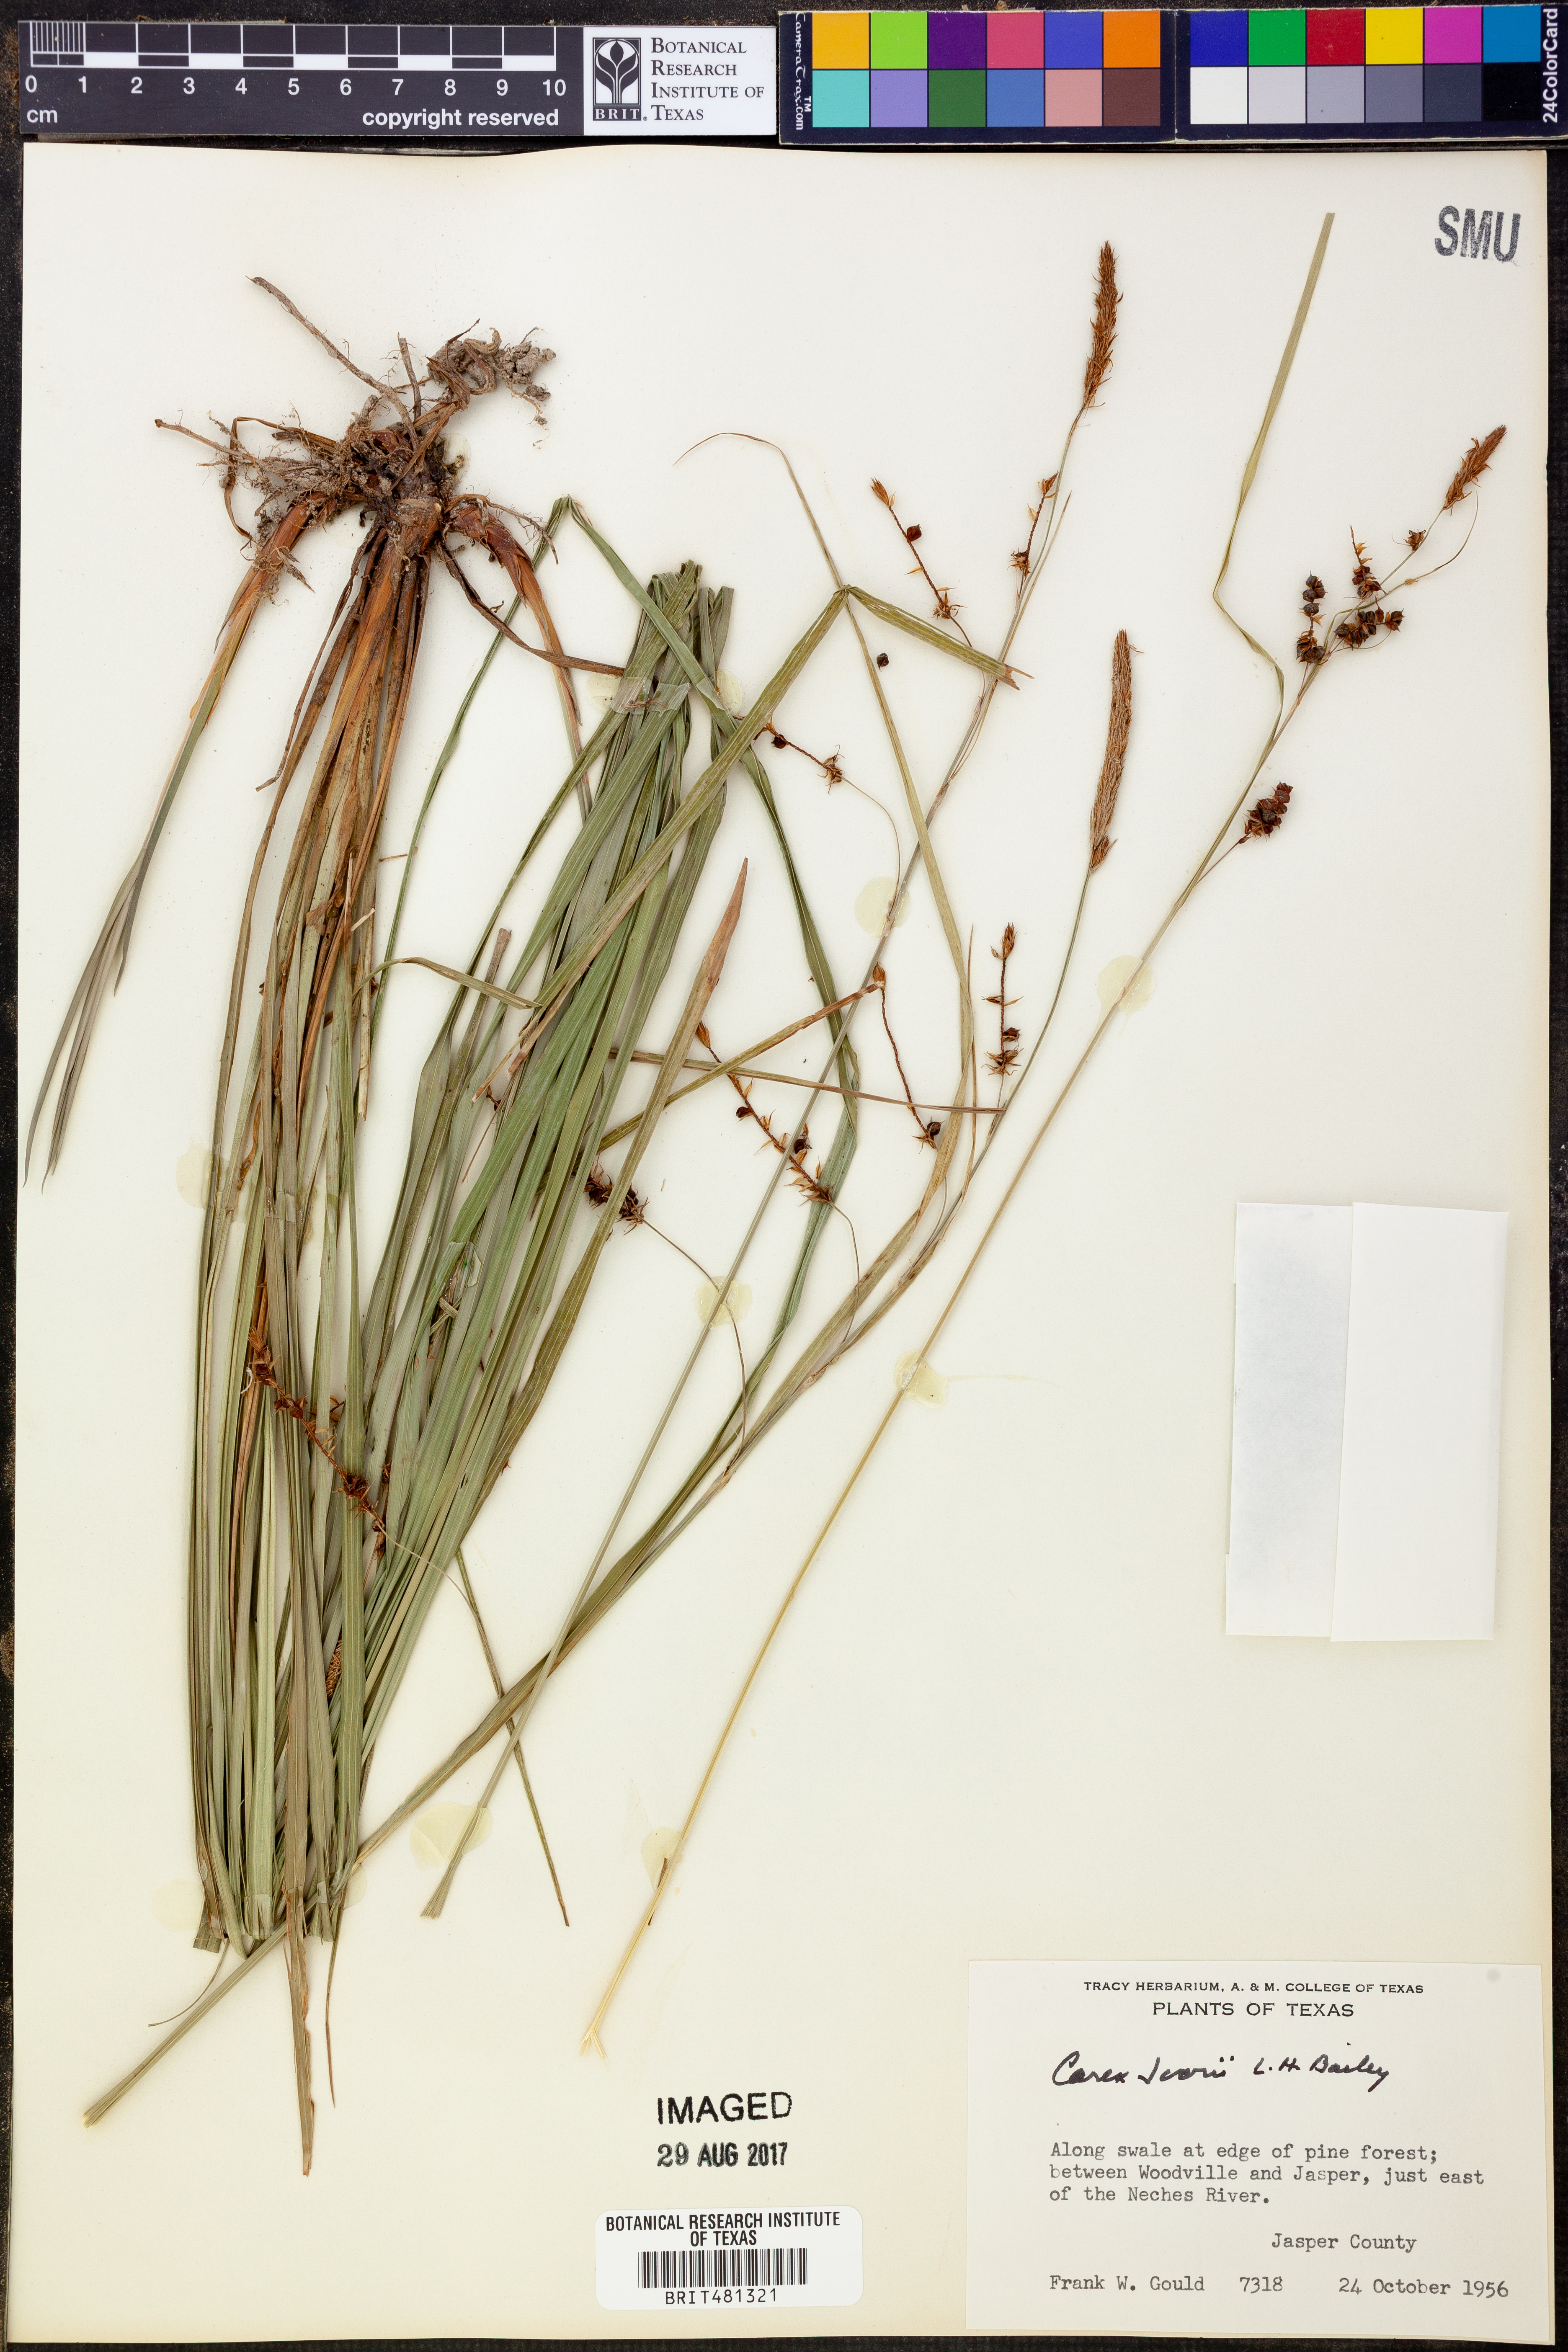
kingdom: Plantae
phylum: Tracheophyta
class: Liliopsida
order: Poales
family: Cyperaceae
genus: Carex
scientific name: Carex jamesii
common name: Grass sedge
